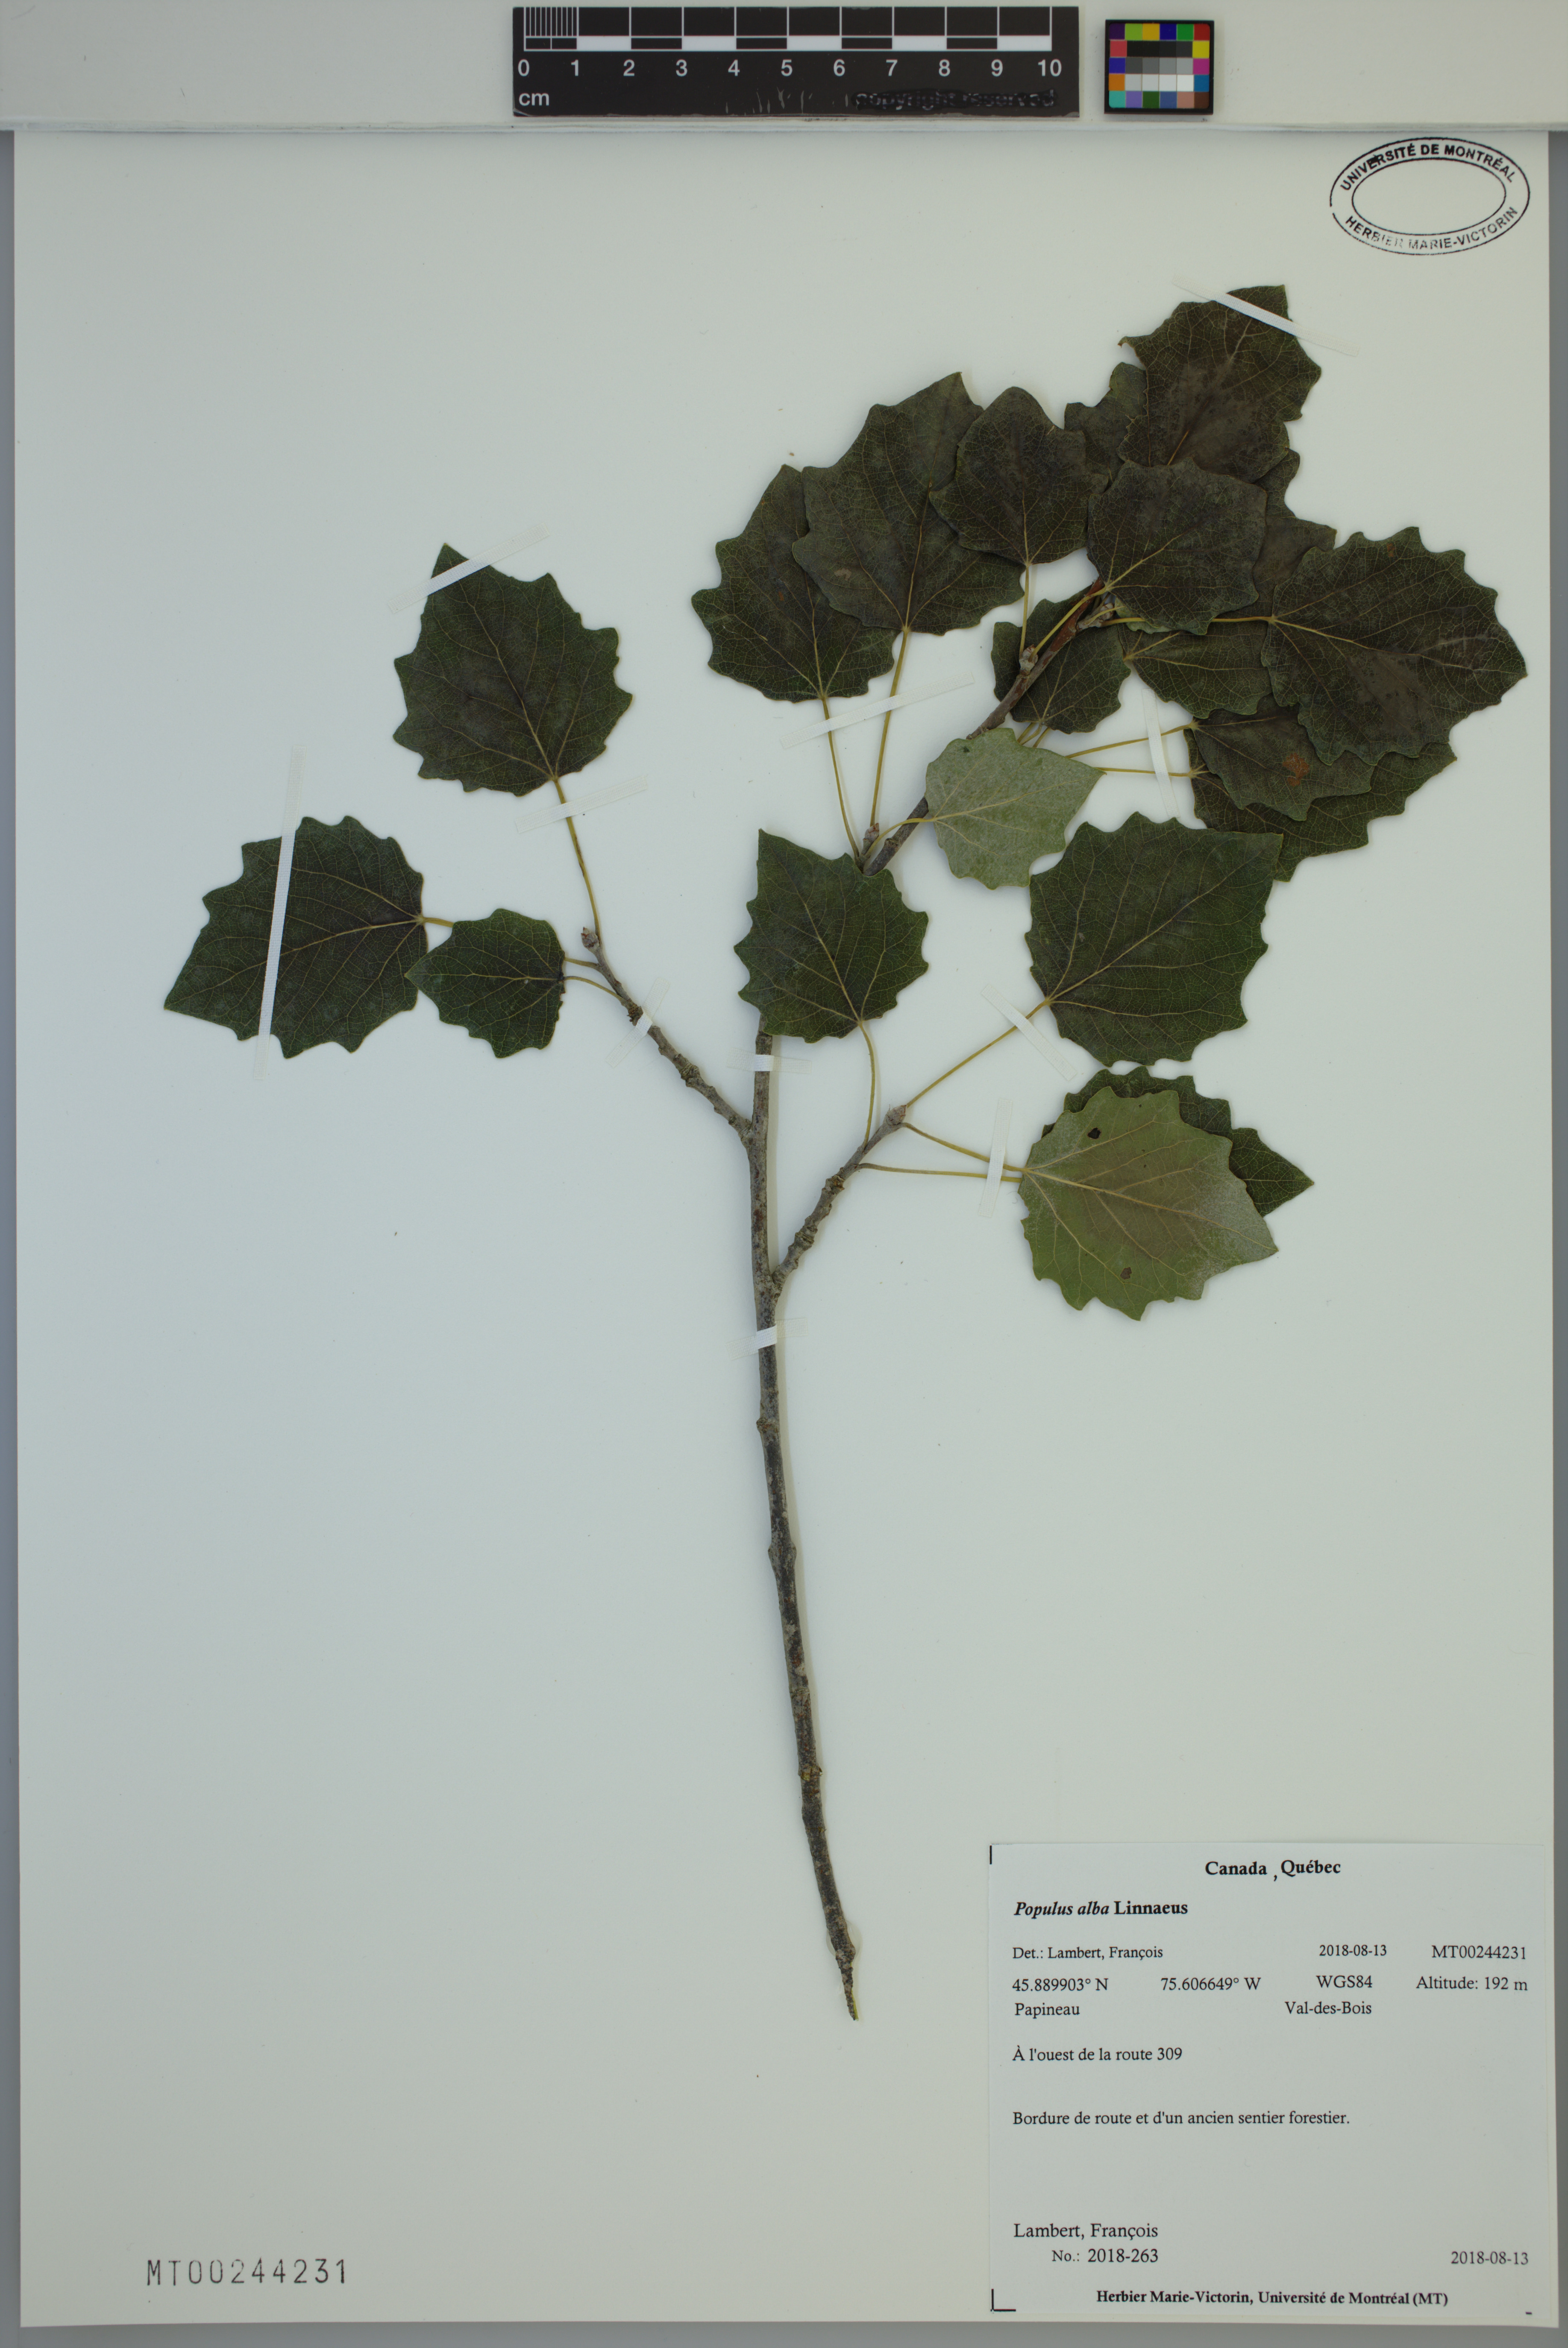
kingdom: Plantae
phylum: Tracheophyta
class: Magnoliopsida
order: Malpighiales
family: Salicaceae
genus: Populus
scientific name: Populus alba
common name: White poplar
